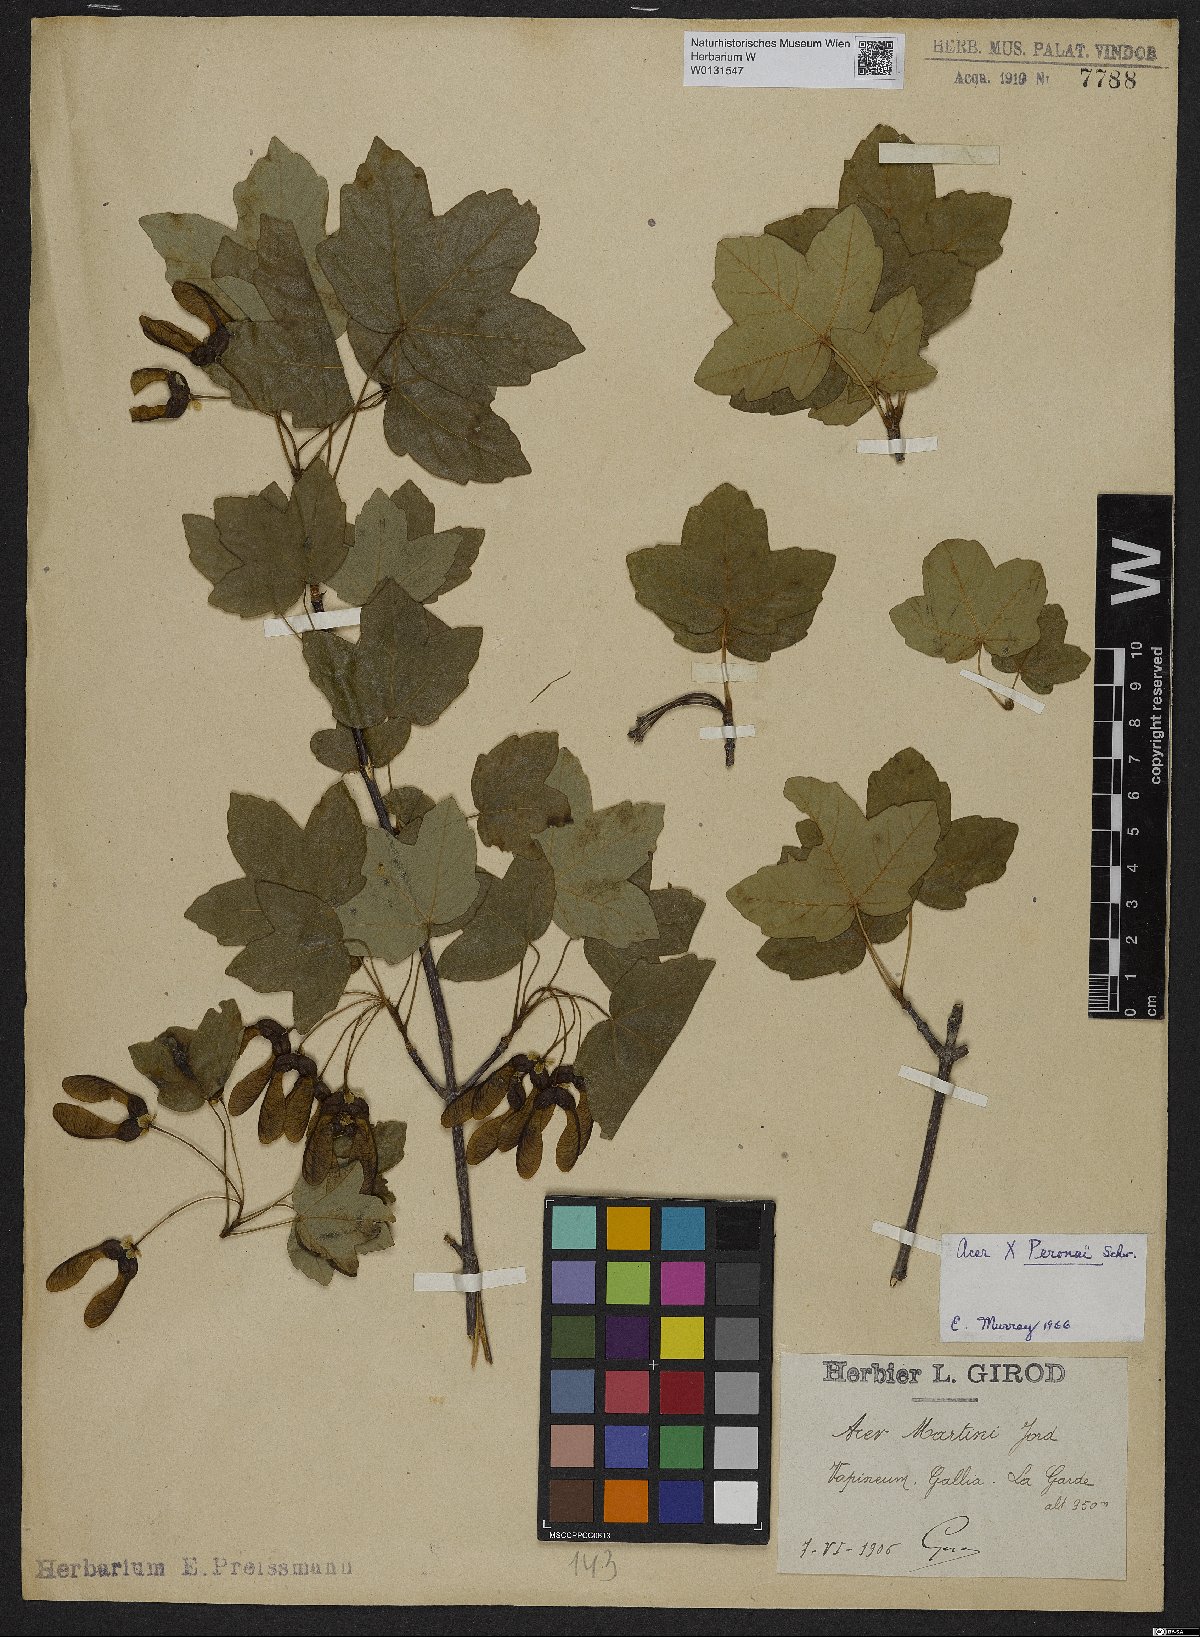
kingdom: Plantae
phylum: Tracheophyta
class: Magnoliopsida
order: Sapindales
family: Aceraceae
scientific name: Aceraceae
